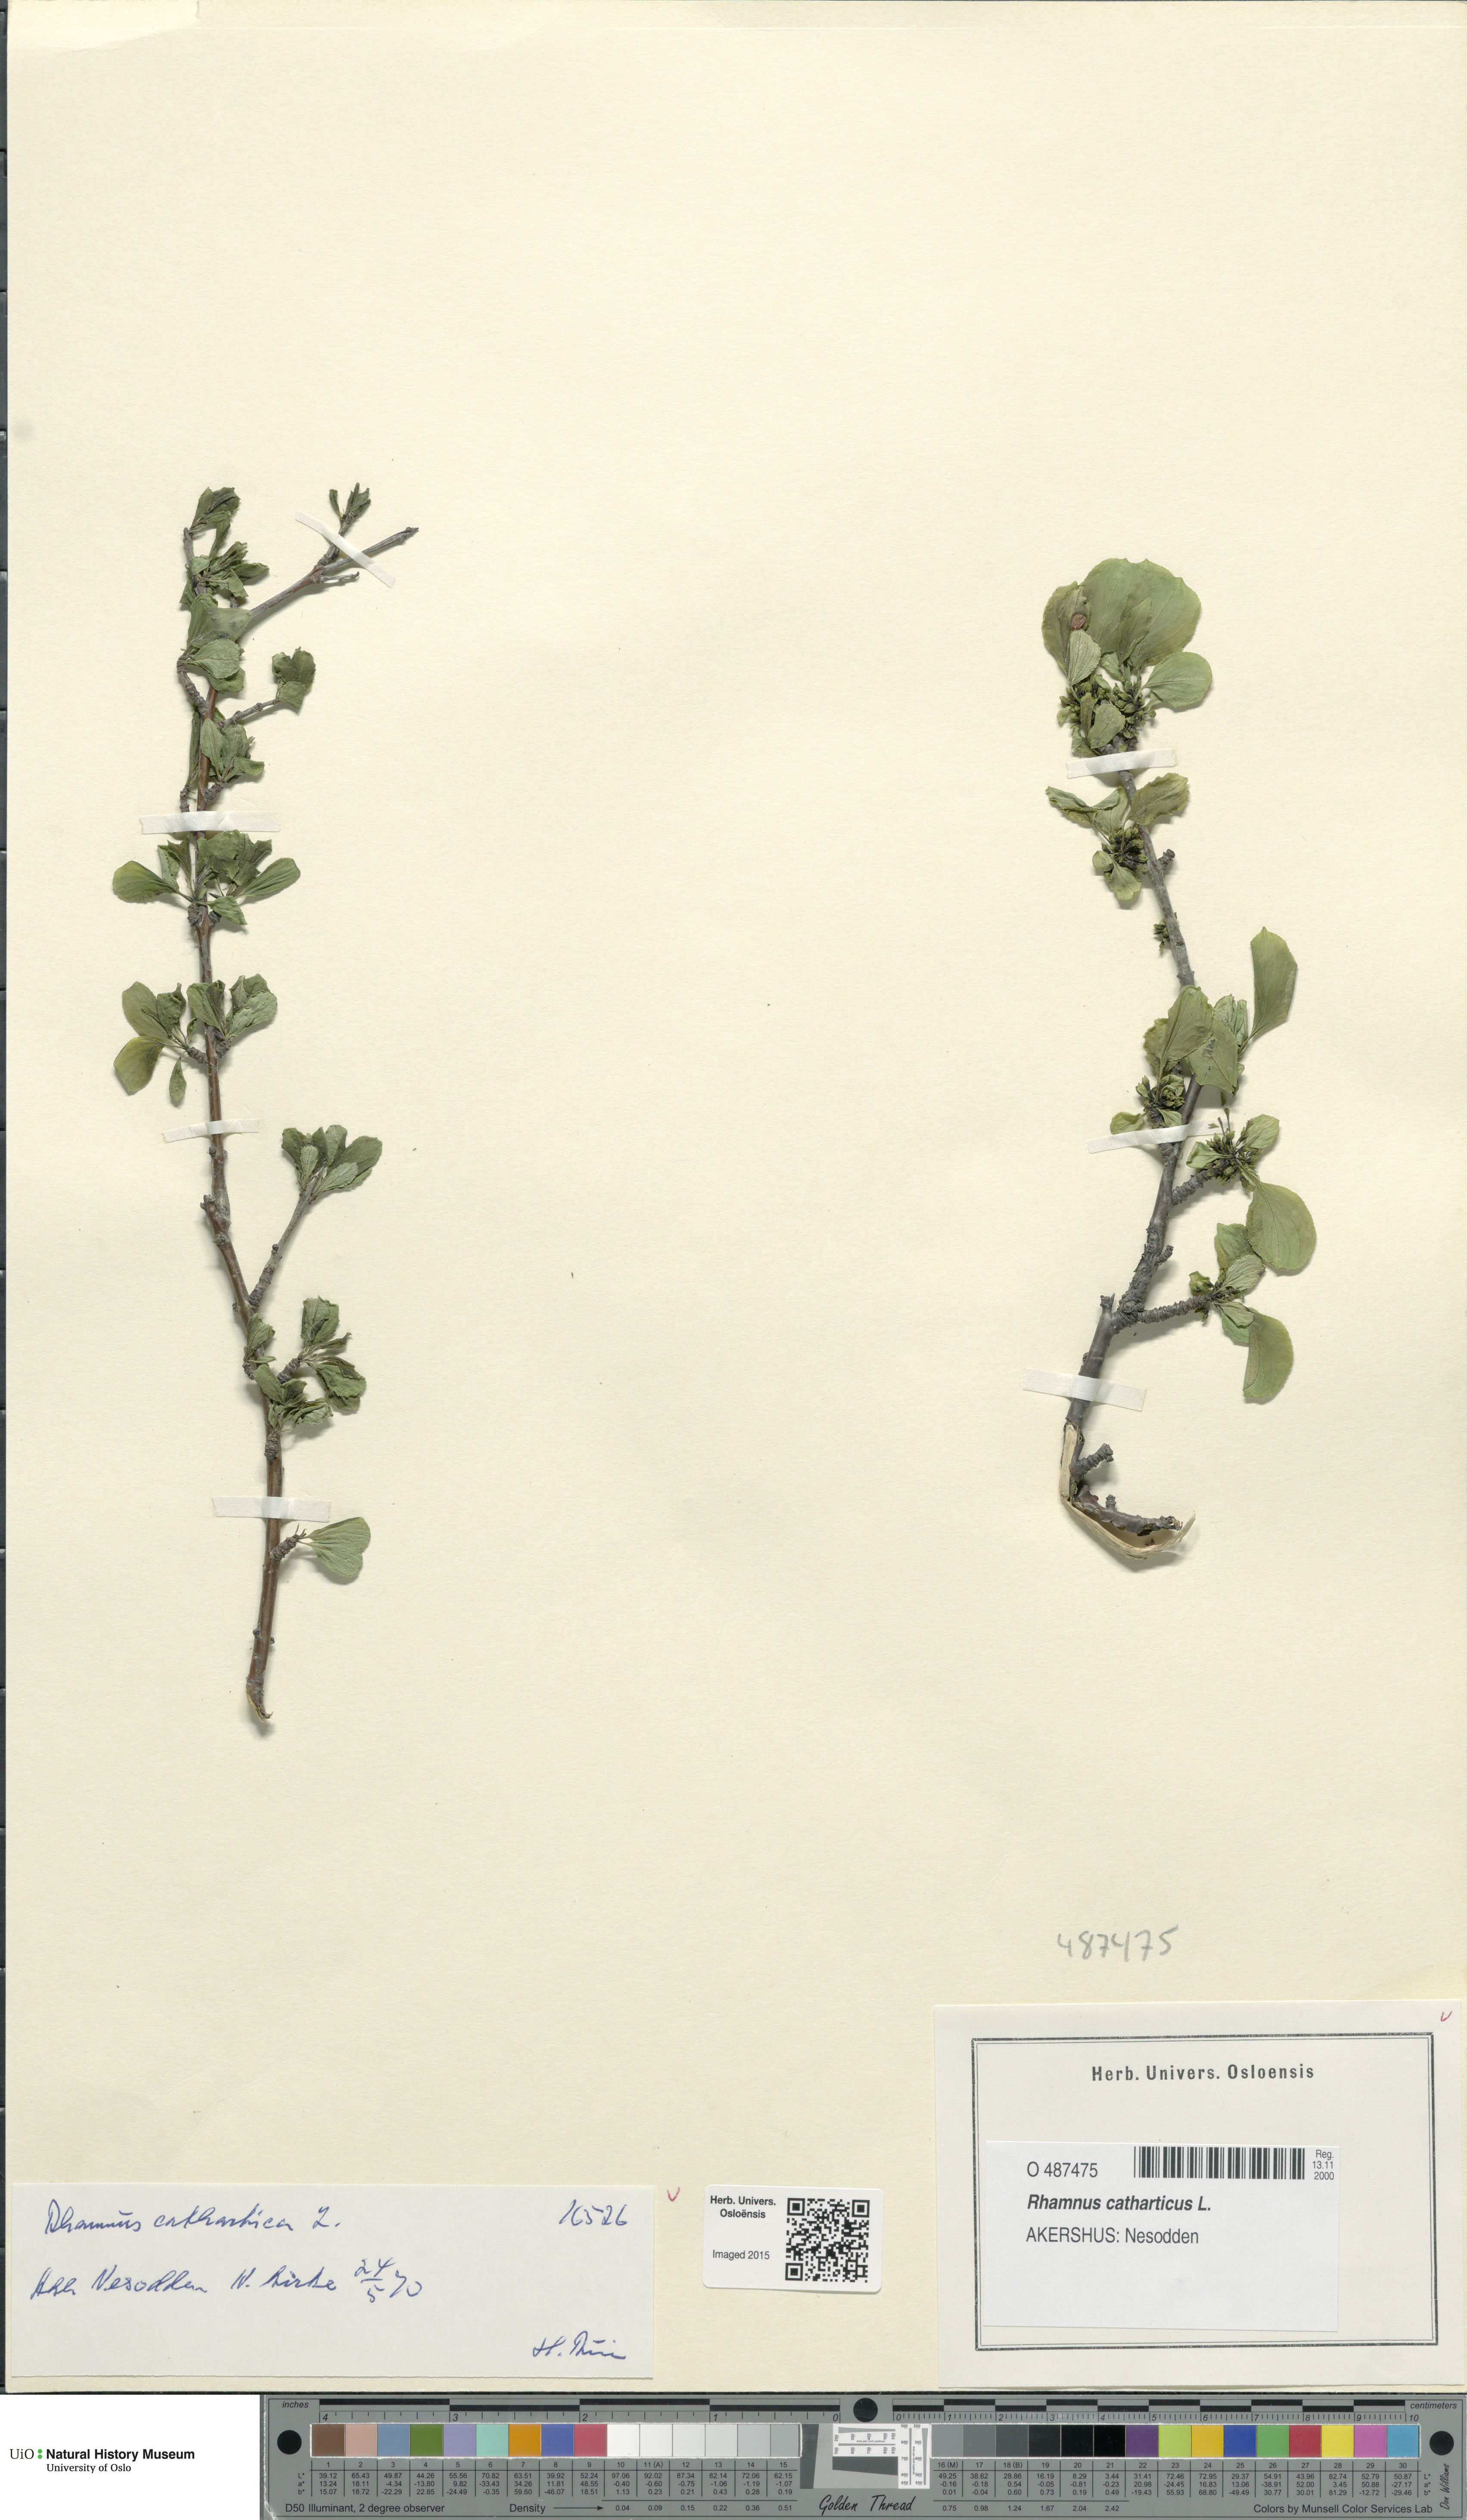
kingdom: Plantae
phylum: Tracheophyta
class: Magnoliopsida
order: Rosales
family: Rhamnaceae
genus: Rhamnus
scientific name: Rhamnus cathartica
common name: Common buckthorn
